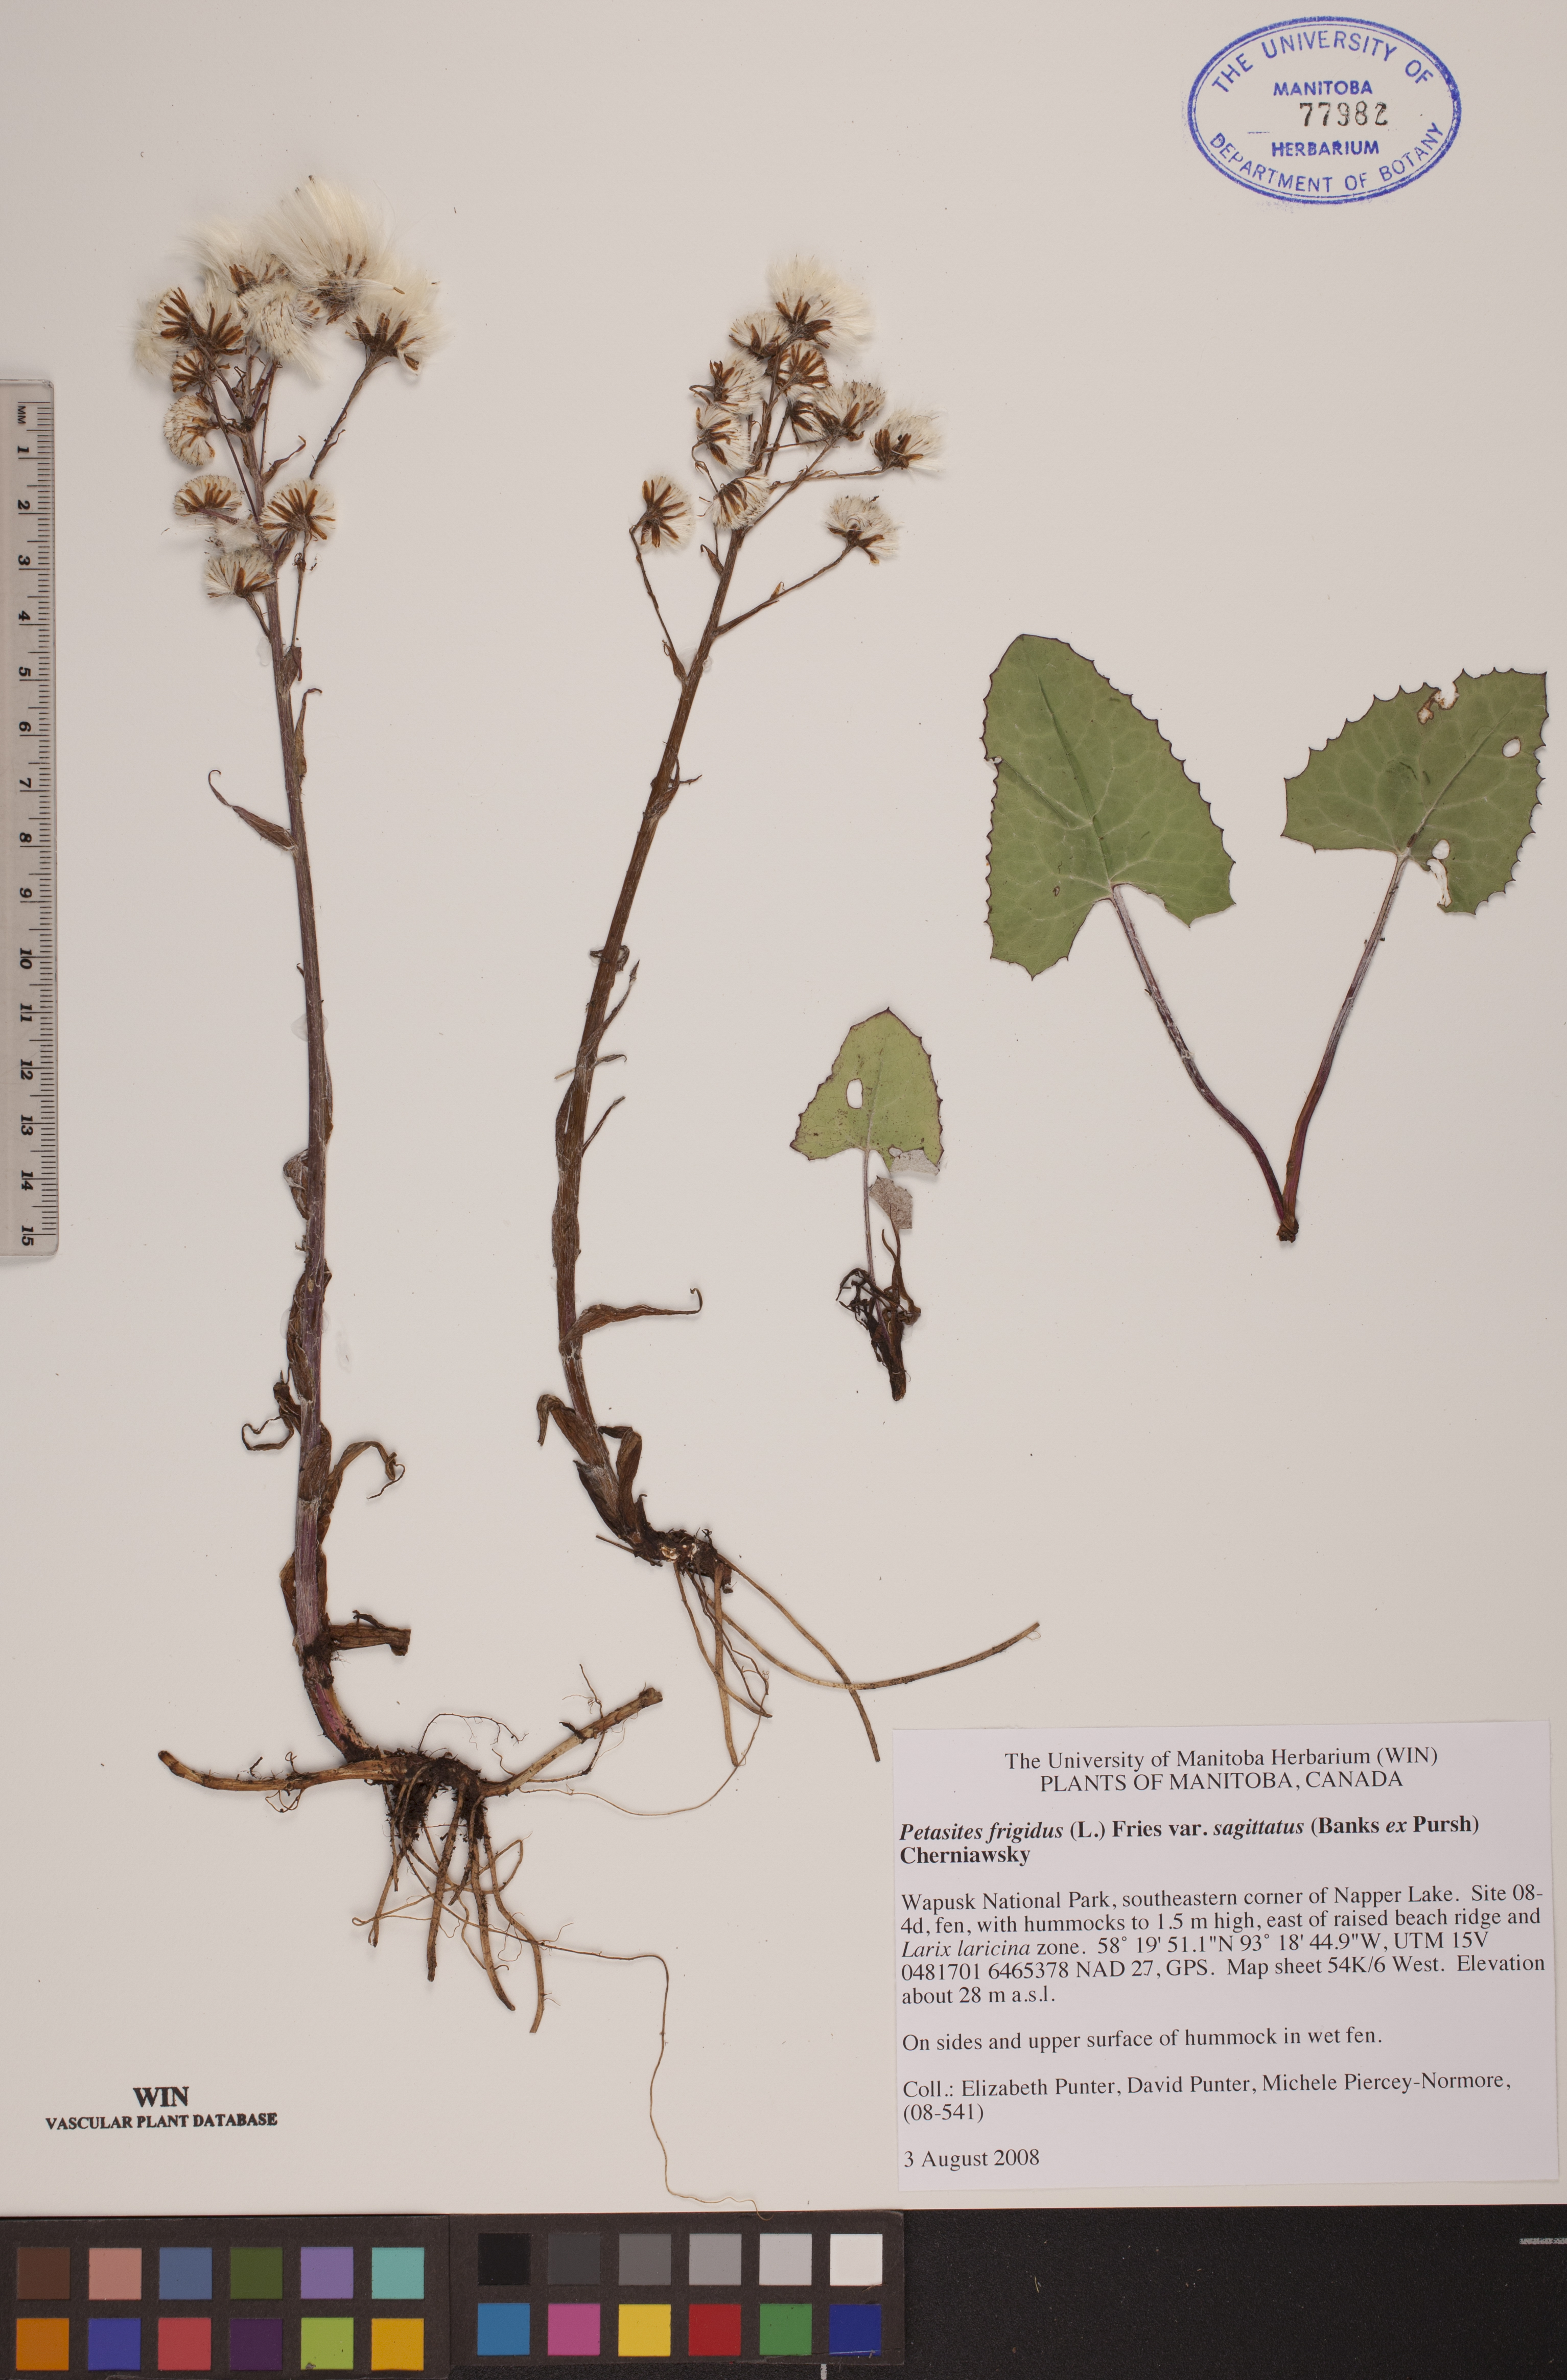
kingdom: Plantae
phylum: Tracheophyta
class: Magnoliopsida
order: Asterales
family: Asteraceae
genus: Petasites
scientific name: Petasites frigidus
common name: Arctic butterbur
